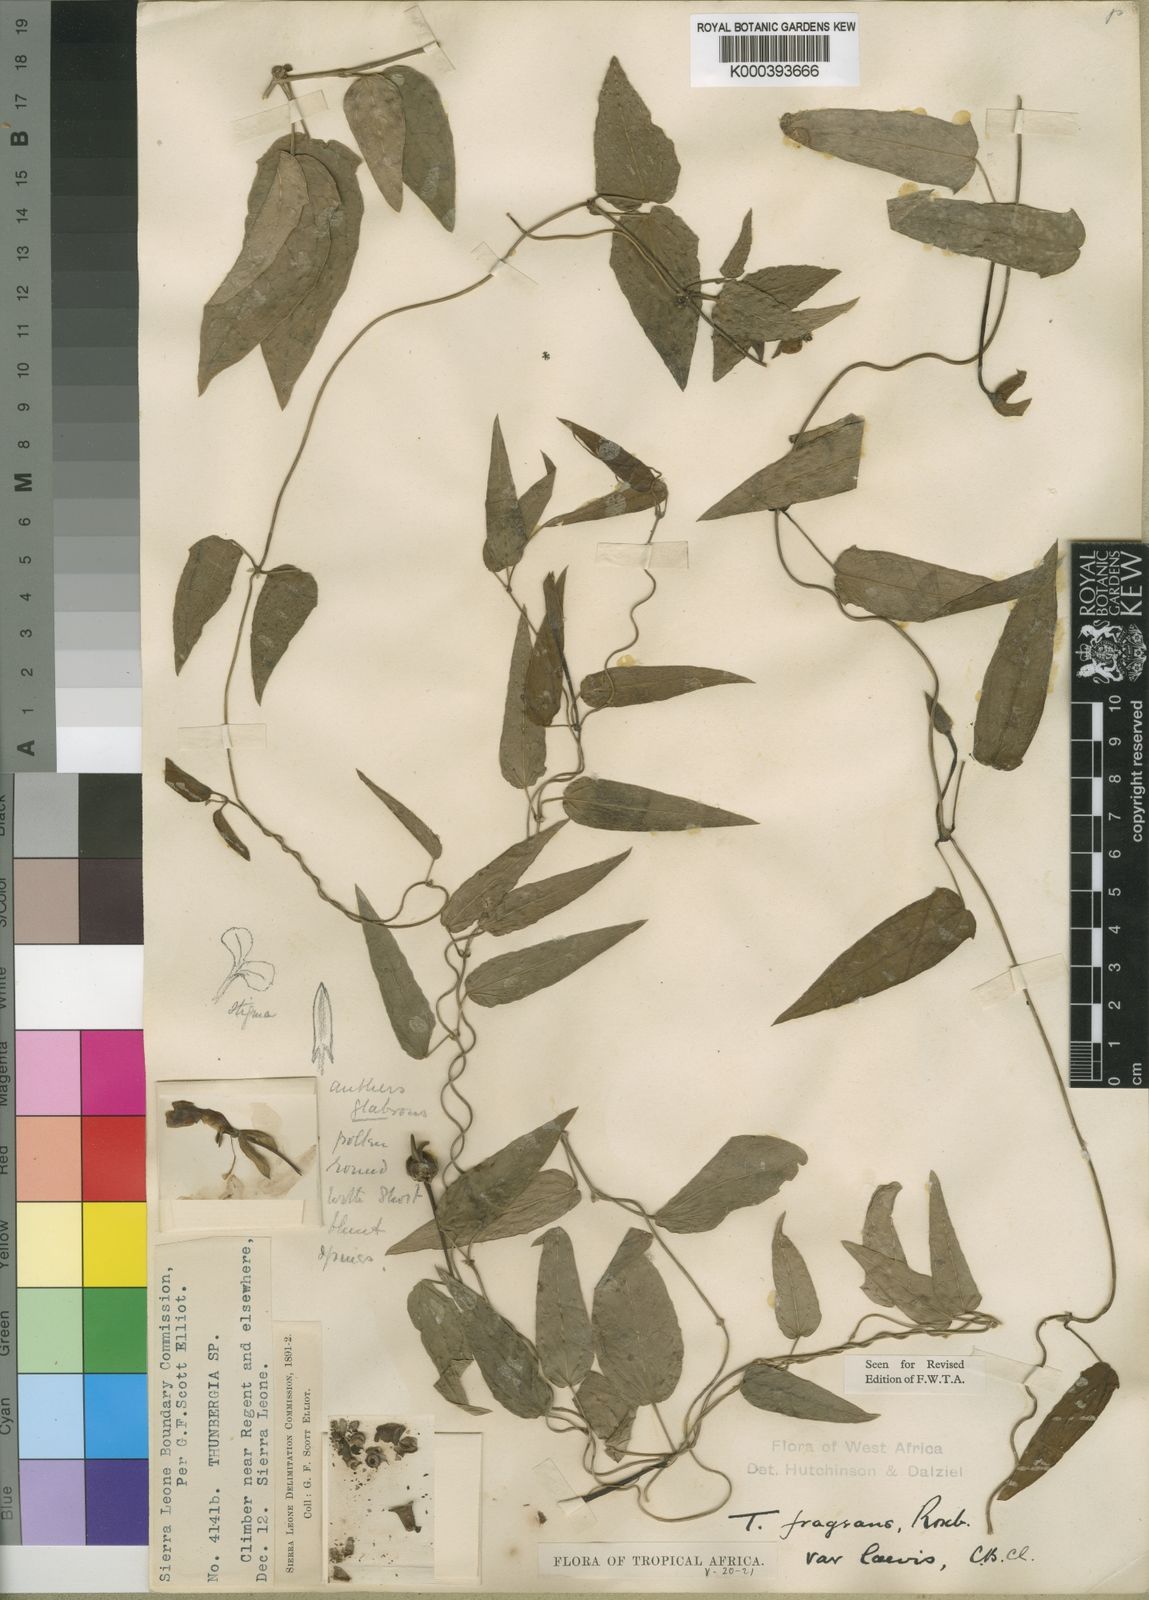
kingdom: Plantae
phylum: Tracheophyta
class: Magnoliopsida
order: Lamiales
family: Acanthaceae
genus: Thunbergia
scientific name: Thunbergia laevis
